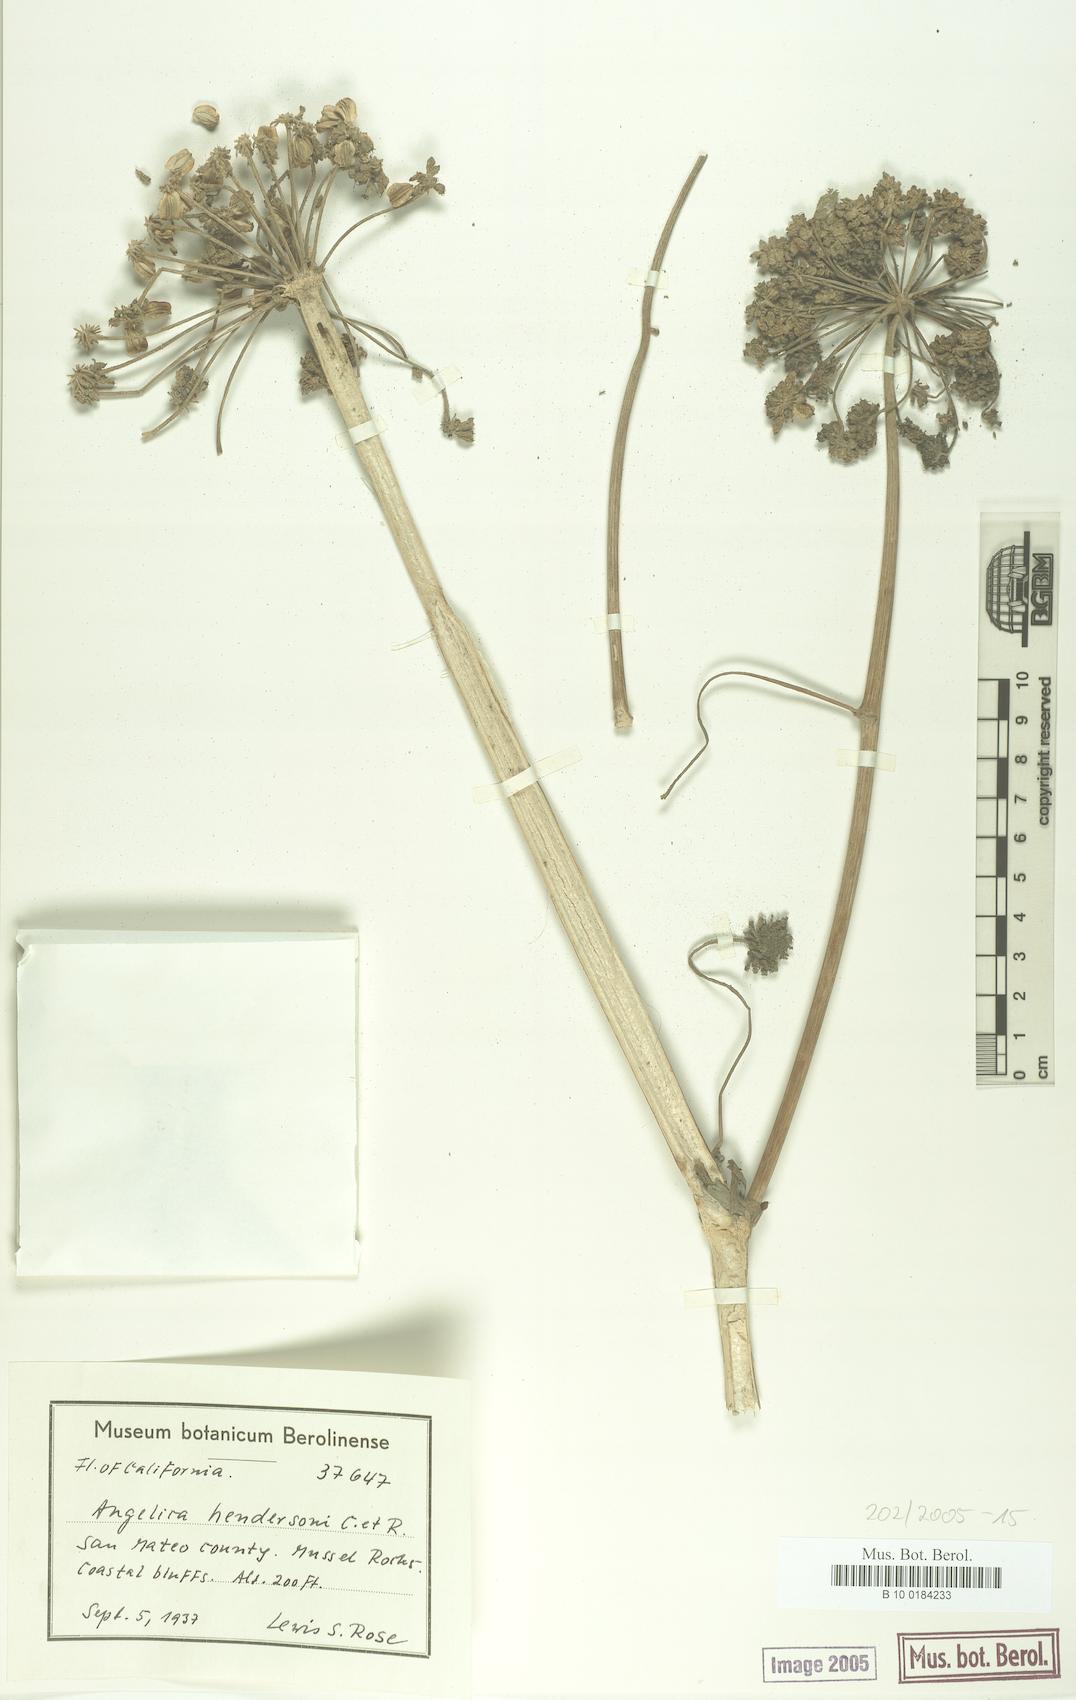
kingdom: Plantae
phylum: Tracheophyta
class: Magnoliopsida
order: Apiales
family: Apiaceae
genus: Angelica
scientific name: Angelica hendersonii
